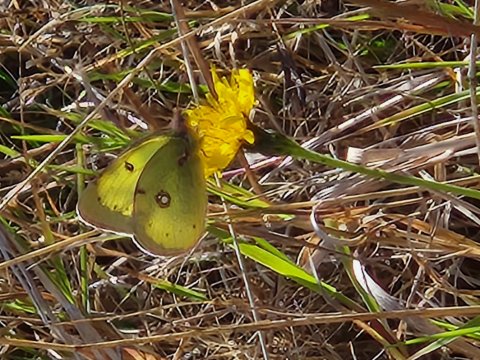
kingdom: Animalia
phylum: Arthropoda
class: Insecta
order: Lepidoptera
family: Pieridae
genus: Colias
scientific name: Colias philodice
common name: Clouded Sulphur
